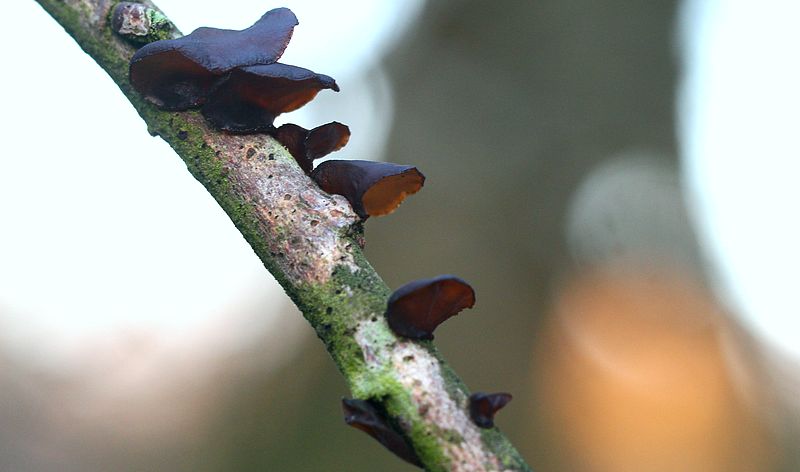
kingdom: Fungi
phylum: Basidiomycota
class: Agaricomycetes
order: Auriculariales
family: Auriculariaceae
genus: Exidia
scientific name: Exidia recisa
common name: pile-bævretop
